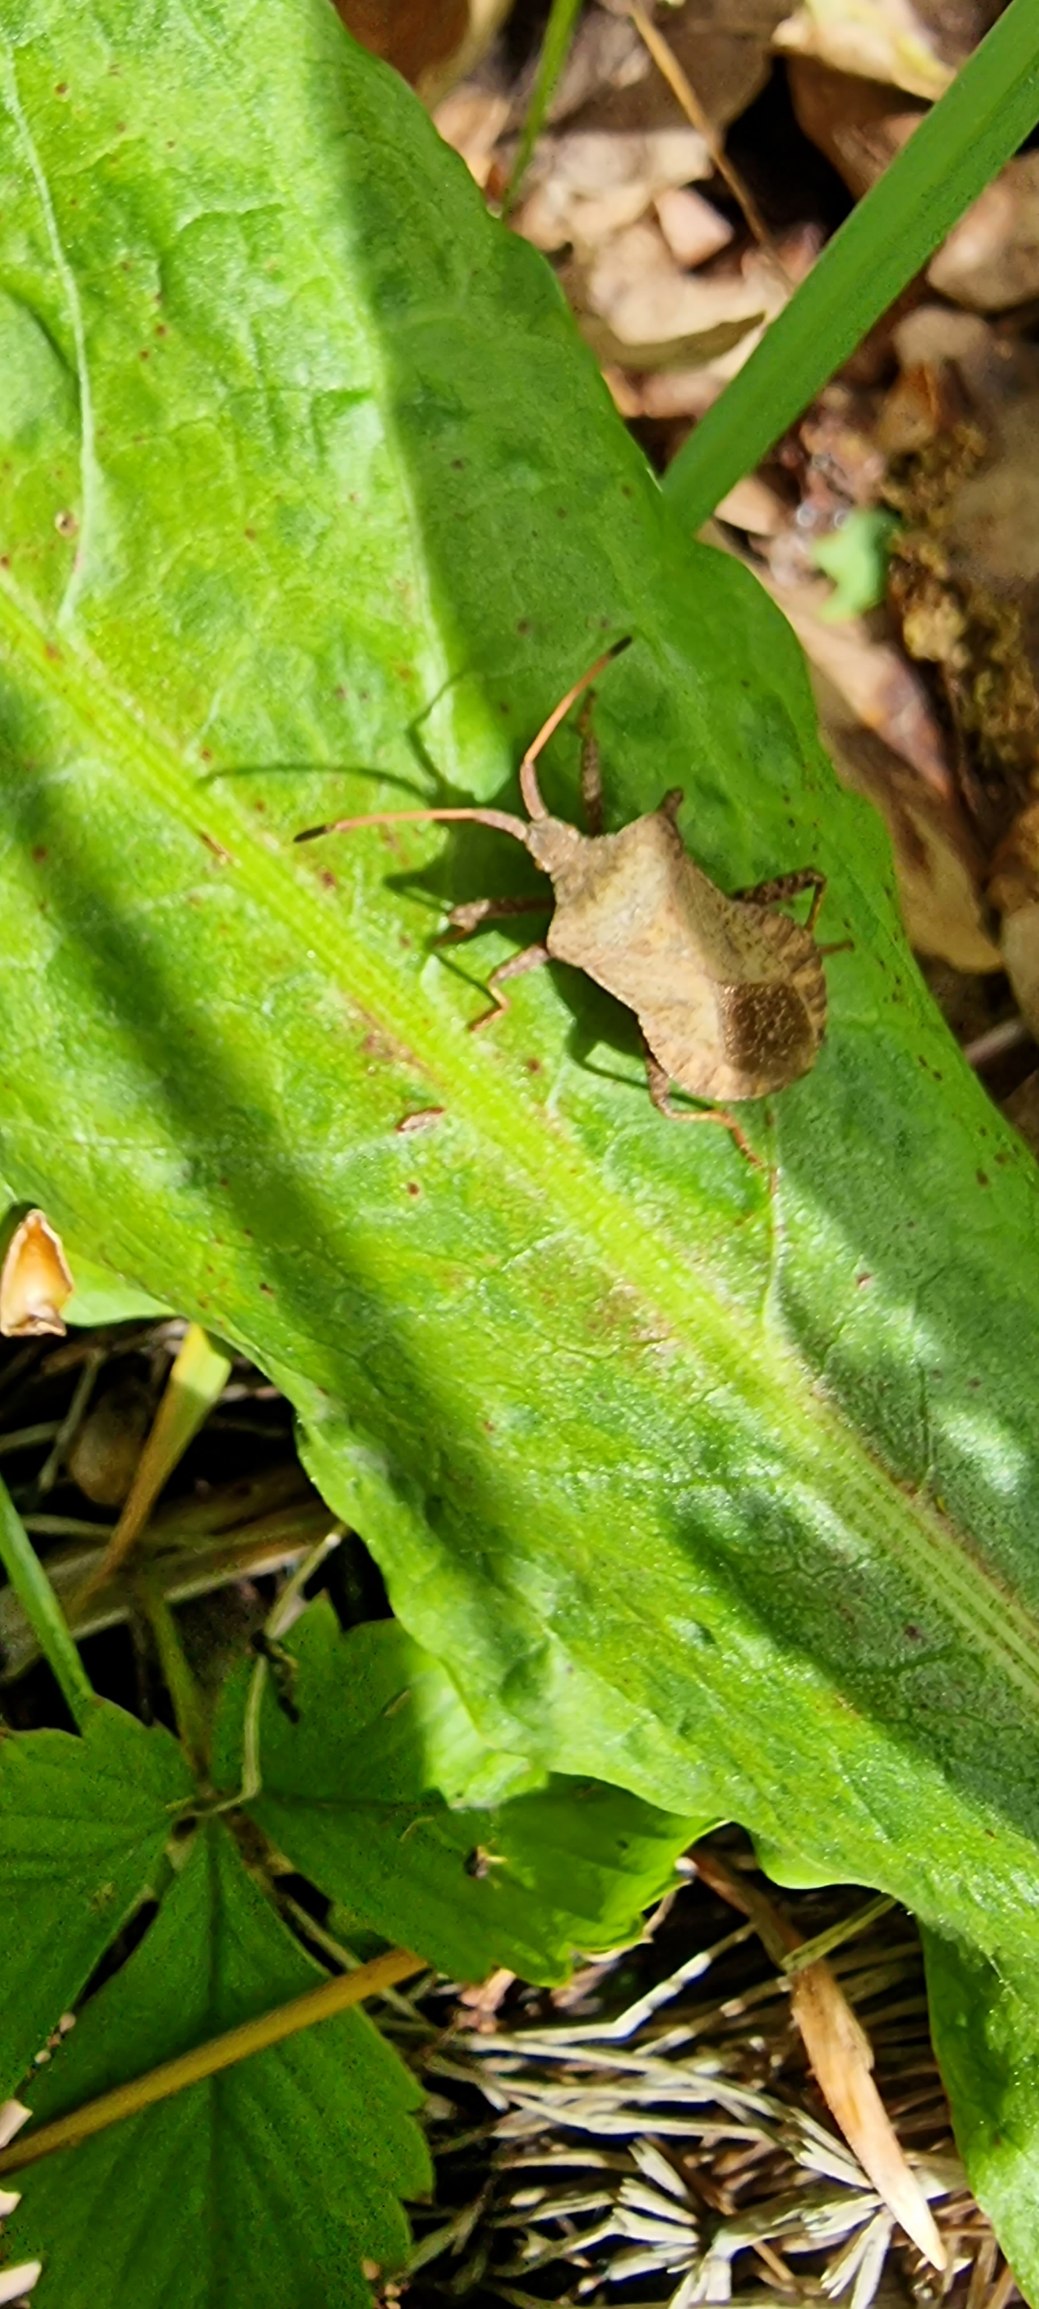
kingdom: Animalia
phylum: Arthropoda
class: Insecta
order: Hemiptera
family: Coreidae
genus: Coreus
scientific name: Coreus marginatus
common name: Skræppetæge
